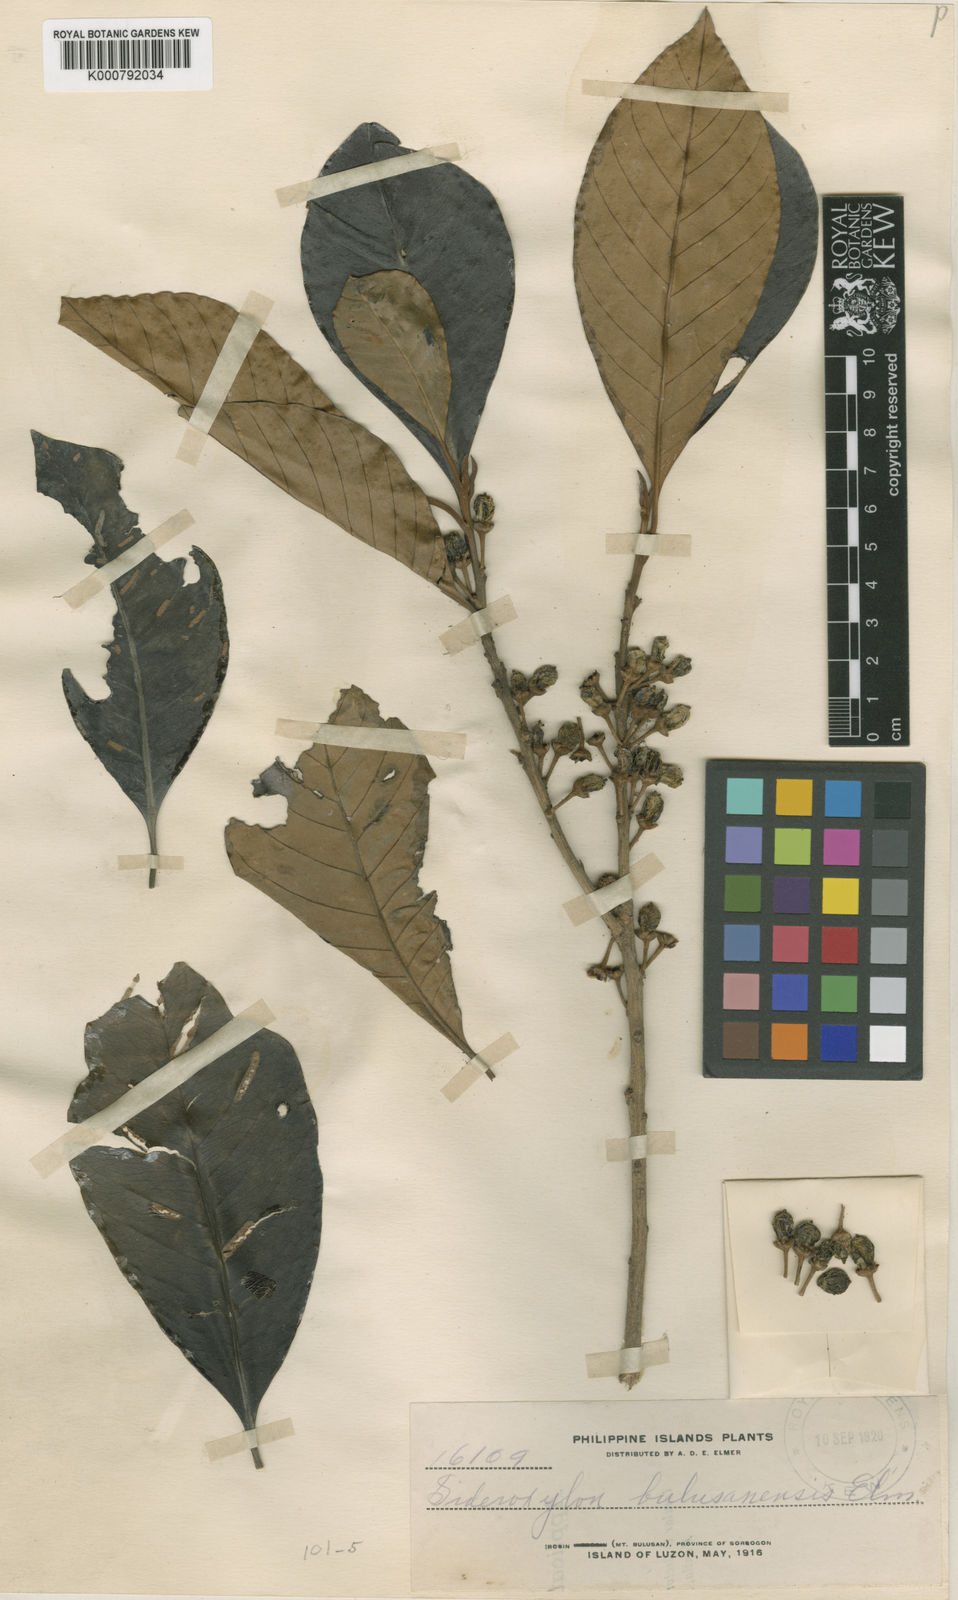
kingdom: Plantae
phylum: Tracheophyta
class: Magnoliopsida
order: Ericales
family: Sapotaceae
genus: Planchonella
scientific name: Planchonella velutina
